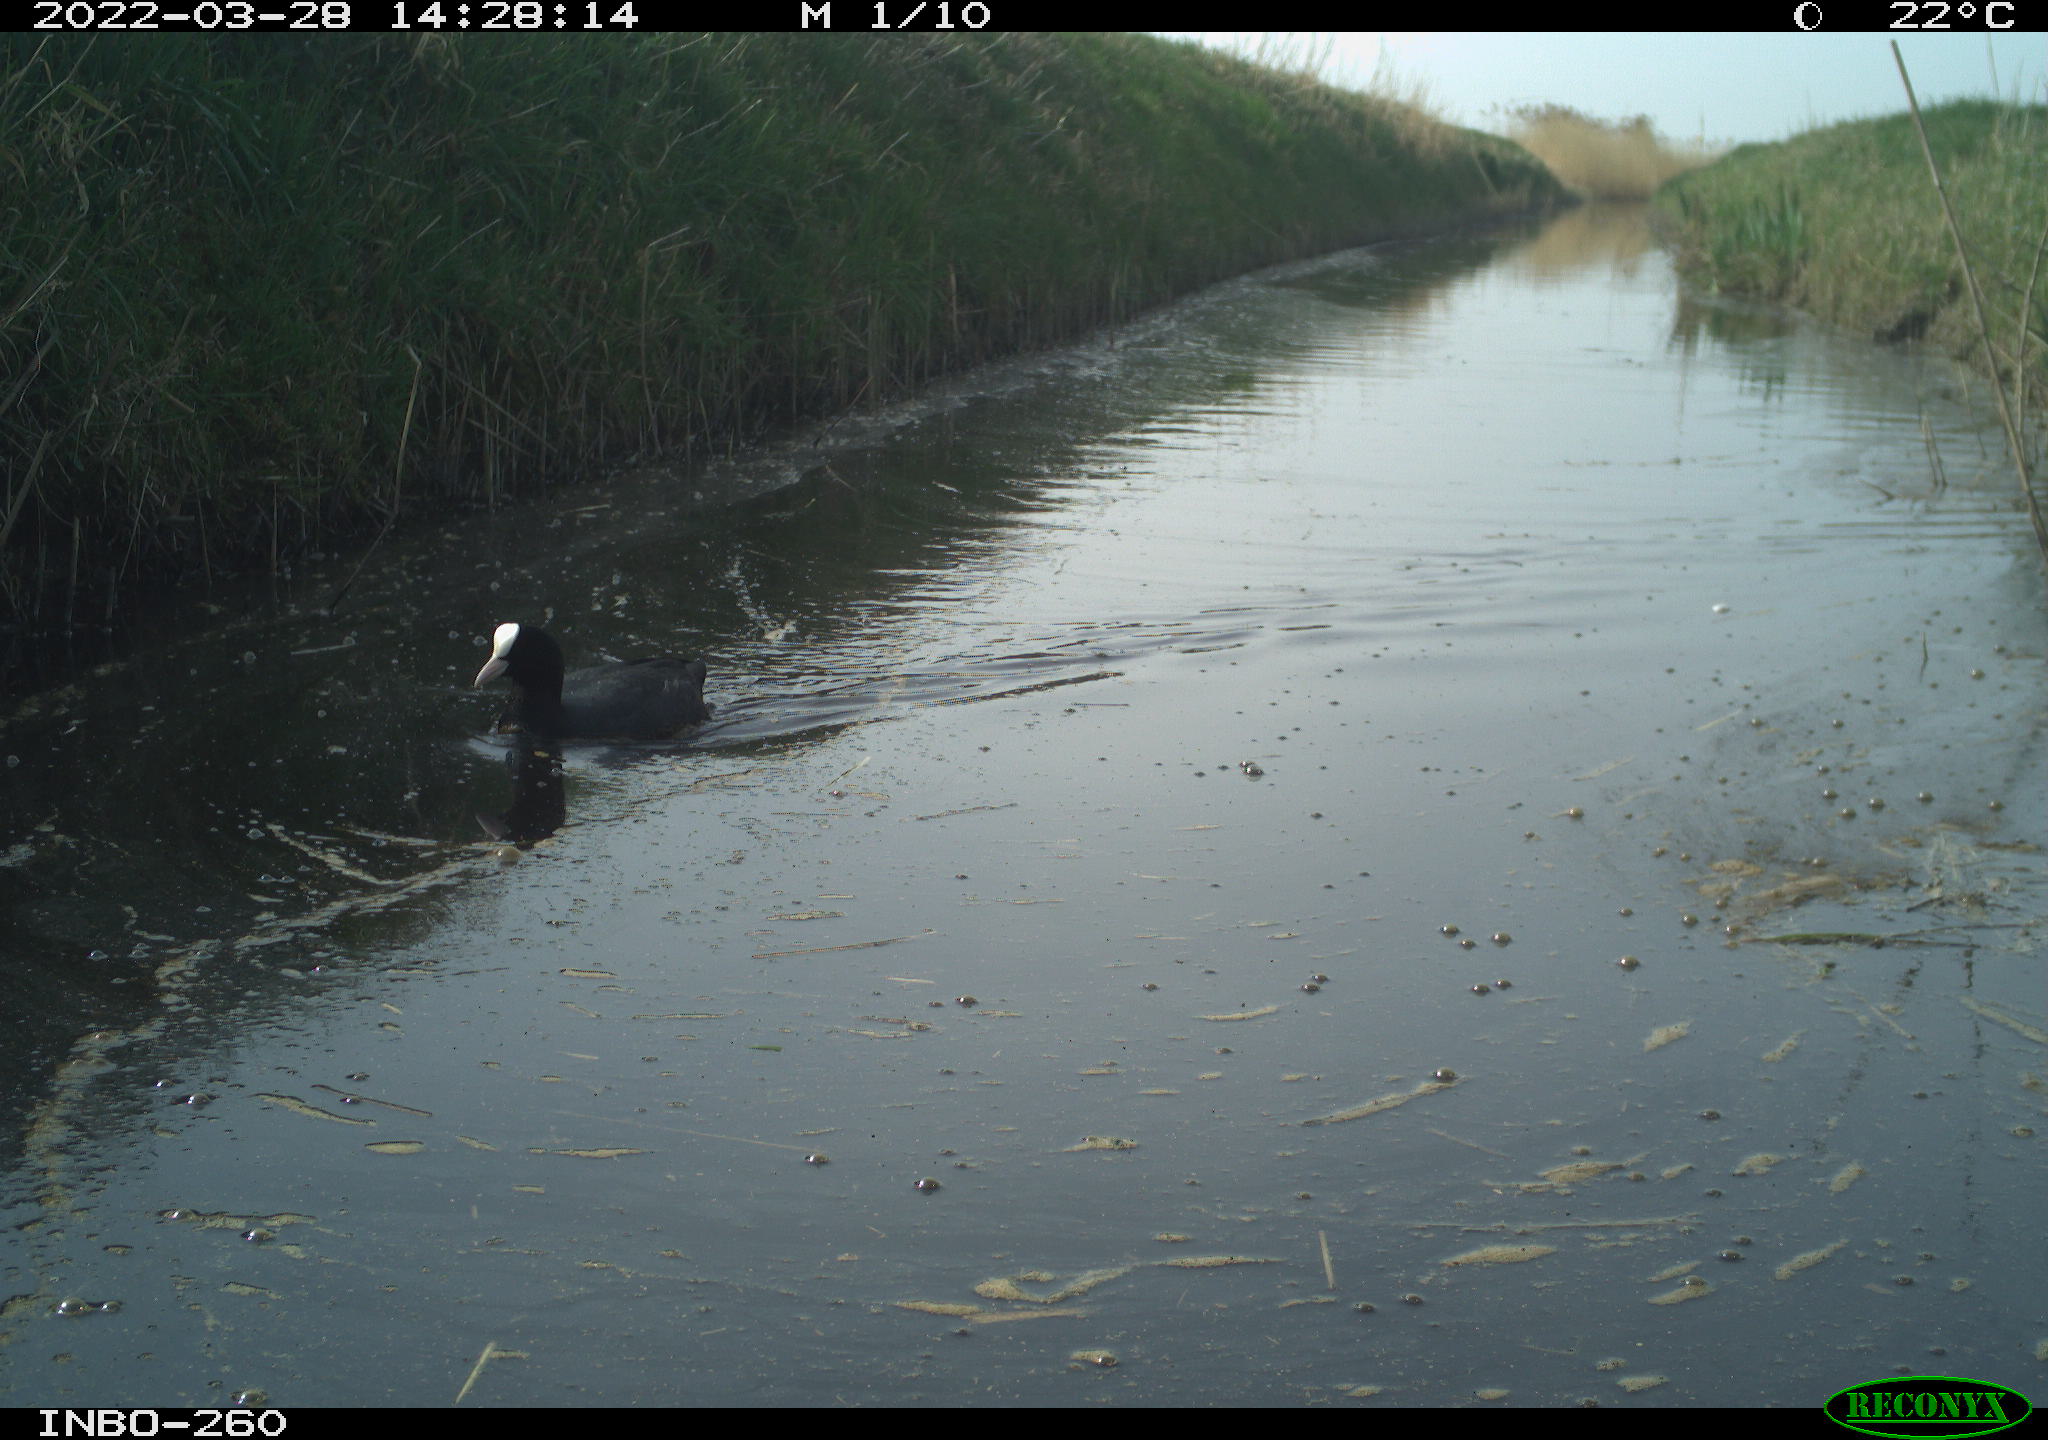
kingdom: Animalia
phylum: Chordata
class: Aves
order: Gruiformes
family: Rallidae
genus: Fulica
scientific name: Fulica atra
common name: Eurasian coot
